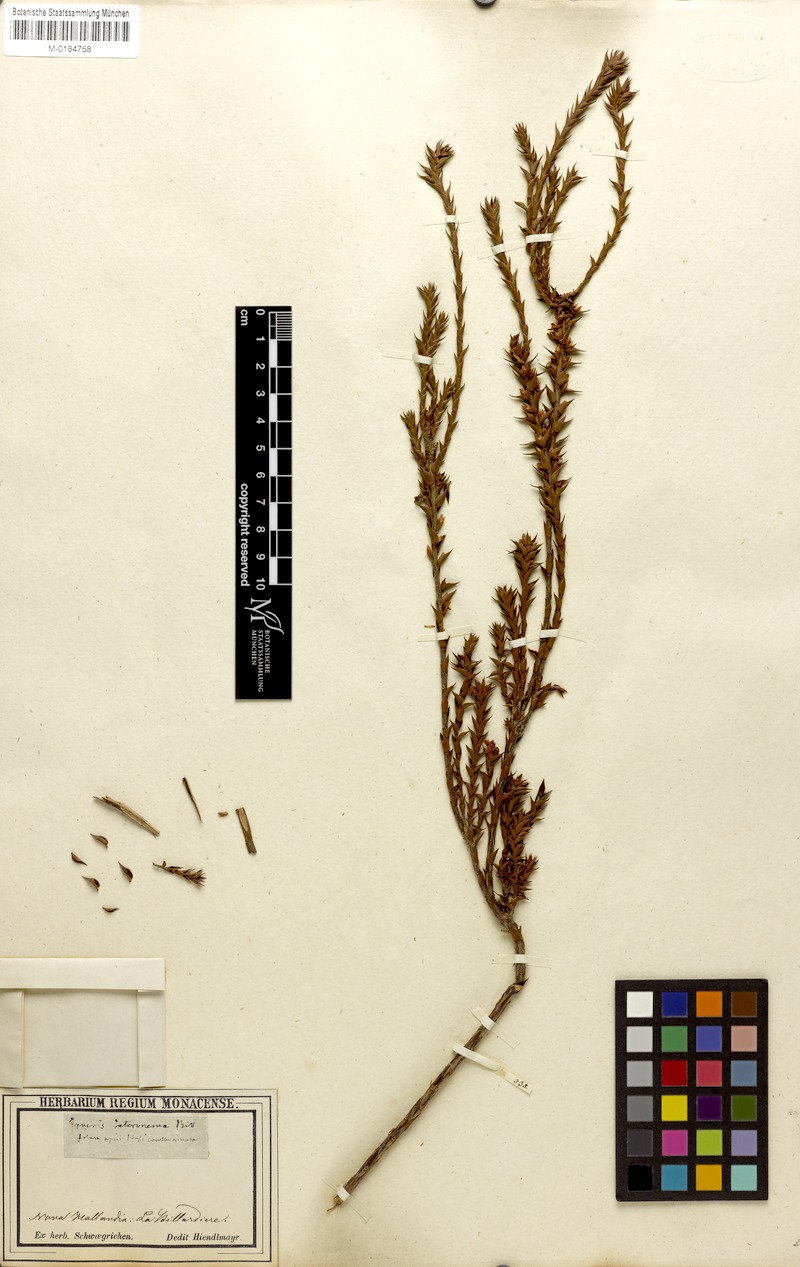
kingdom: Plantae
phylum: Tracheophyta
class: Magnoliopsida
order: Ericales
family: Ericaceae
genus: Epacris
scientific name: Epacris heteronema
